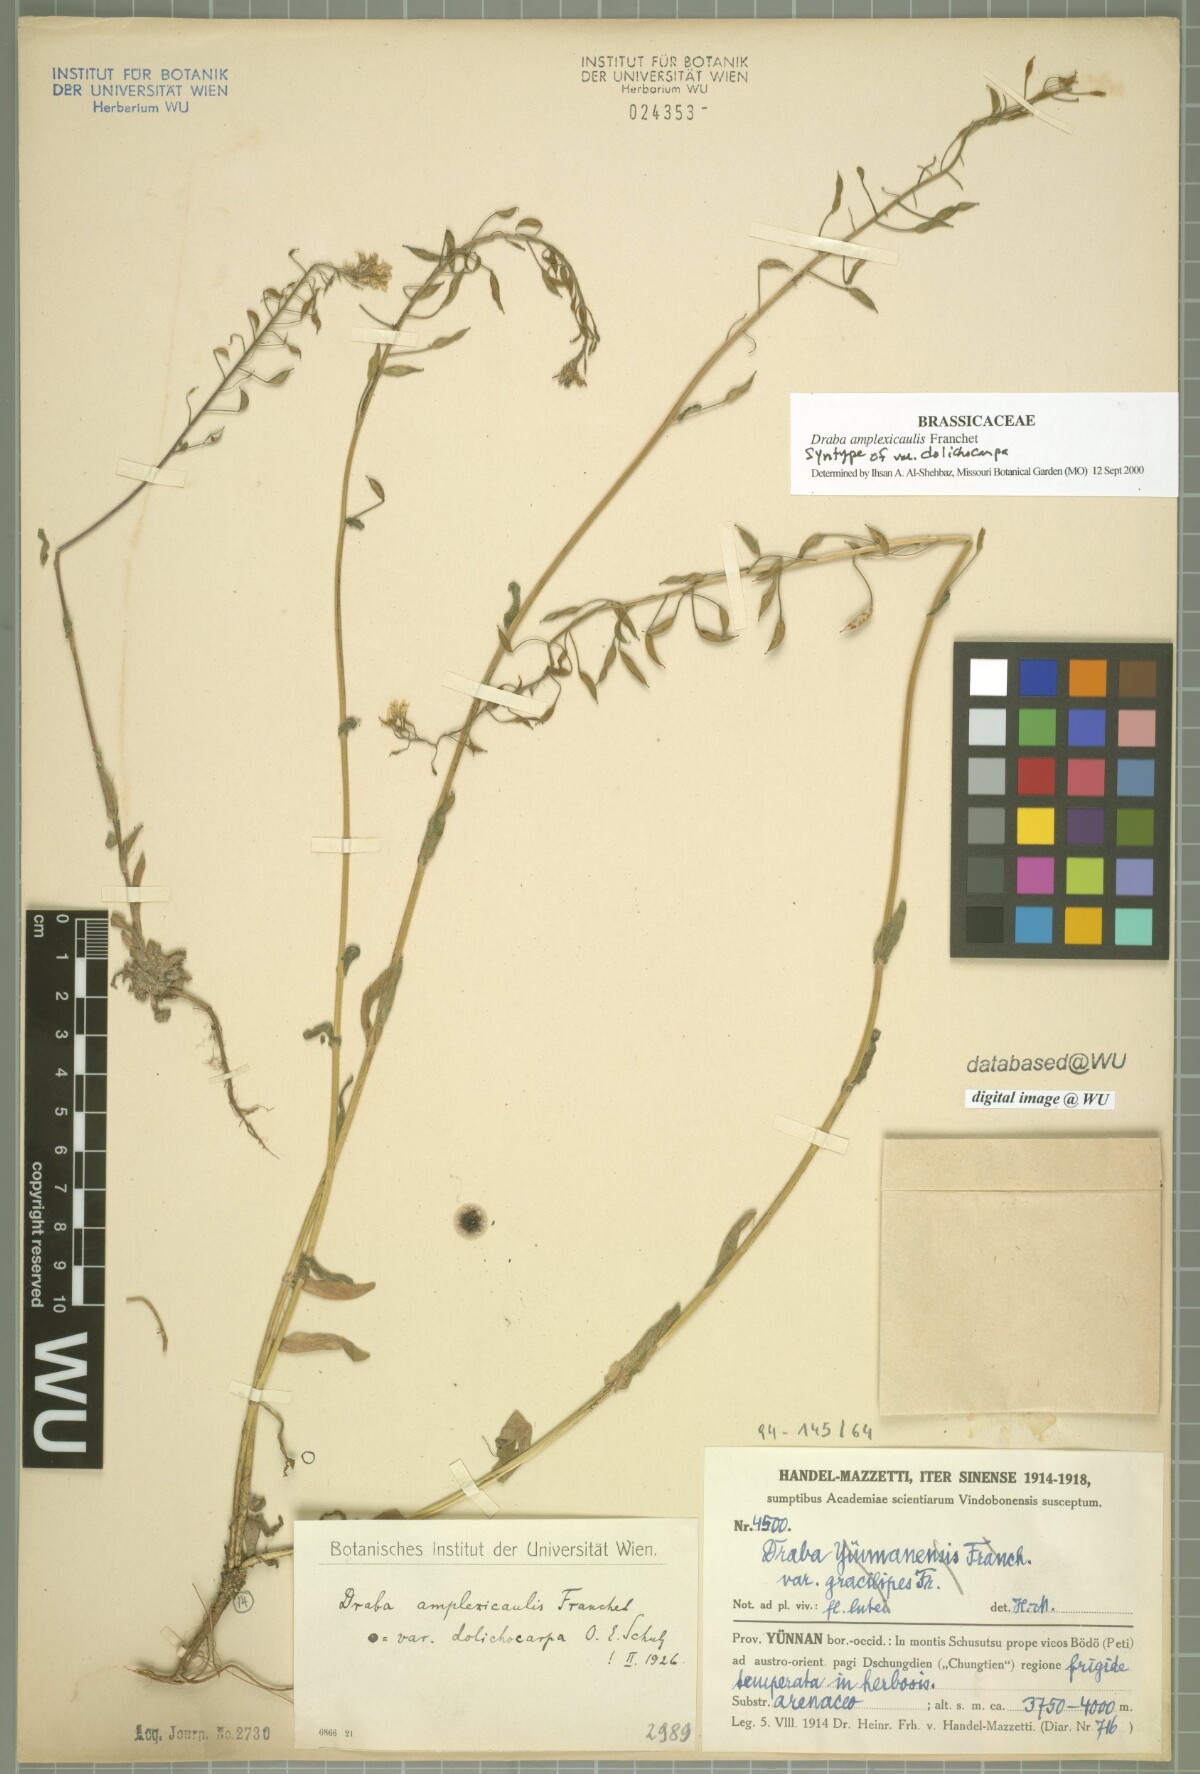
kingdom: Plantae
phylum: Tracheophyta
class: Magnoliopsida
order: Brassicales
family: Brassicaceae
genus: Draba
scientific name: Draba amplexicaulis
